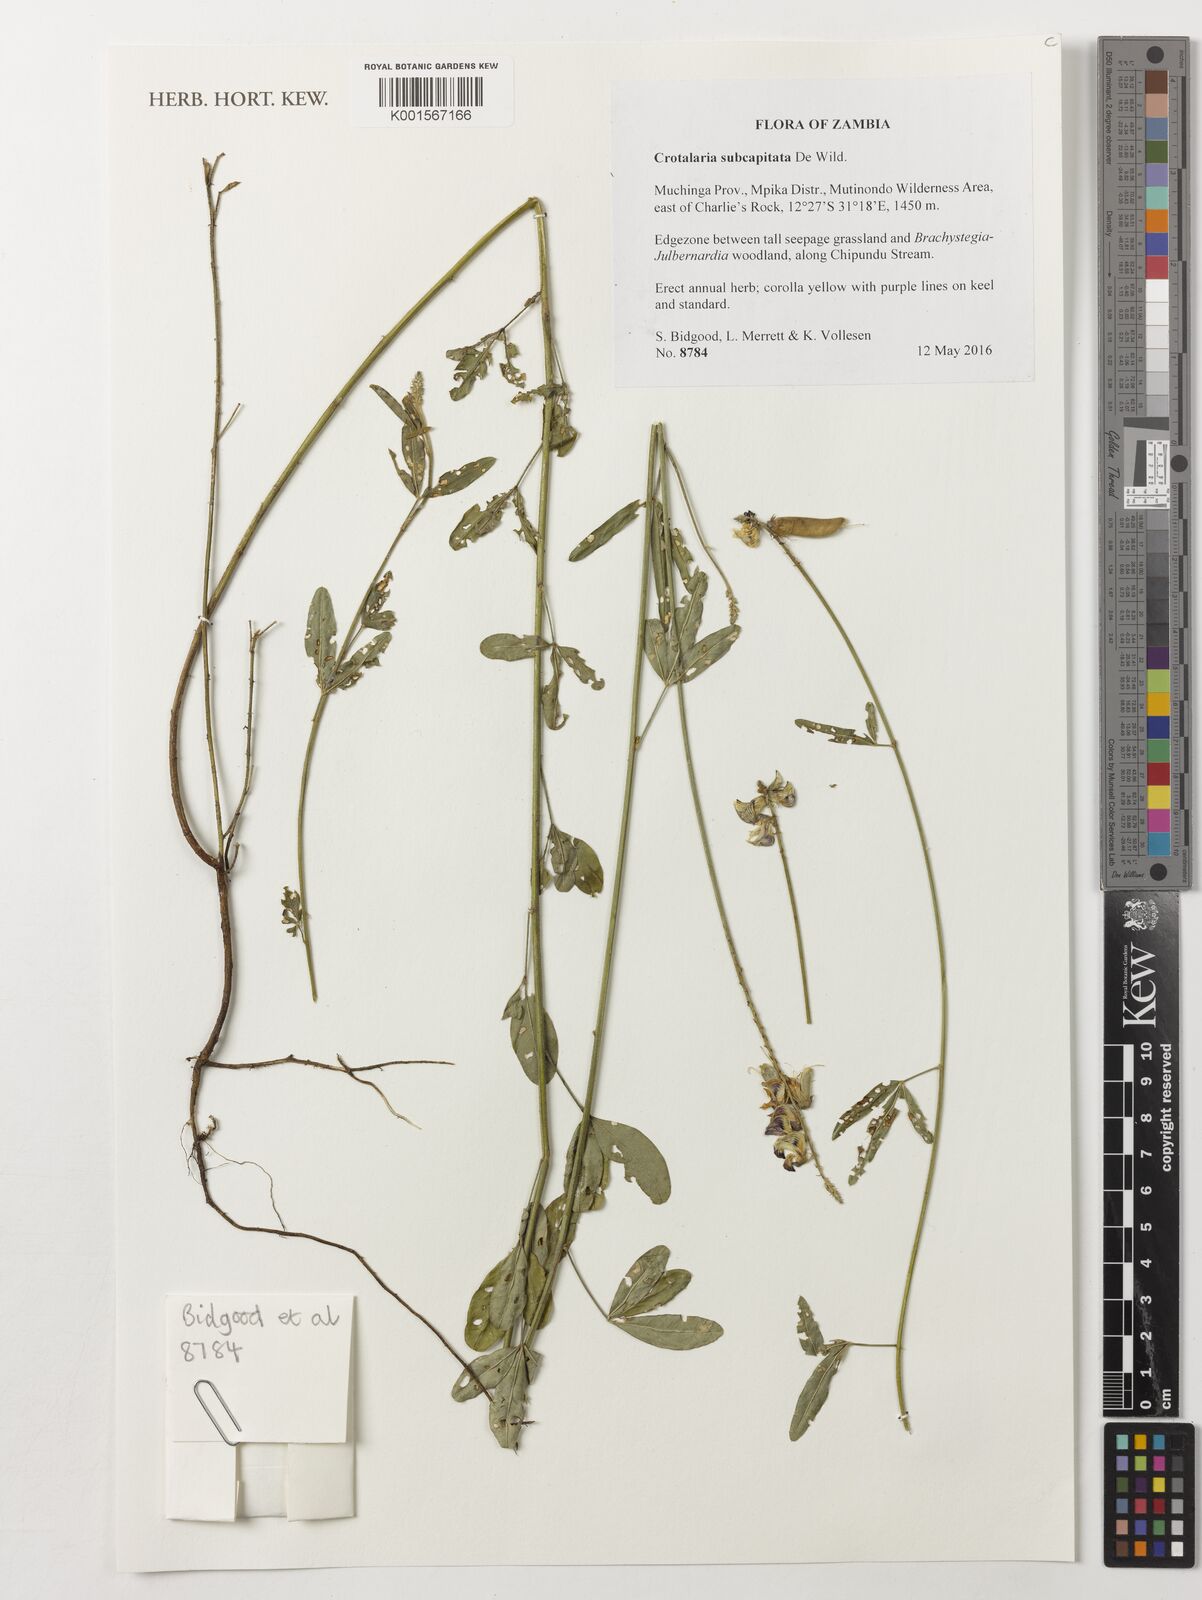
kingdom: Plantae
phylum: Tracheophyta
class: Magnoliopsida
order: Fabales
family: Fabaceae
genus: Crotalaria
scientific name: Crotalaria subcapitata
